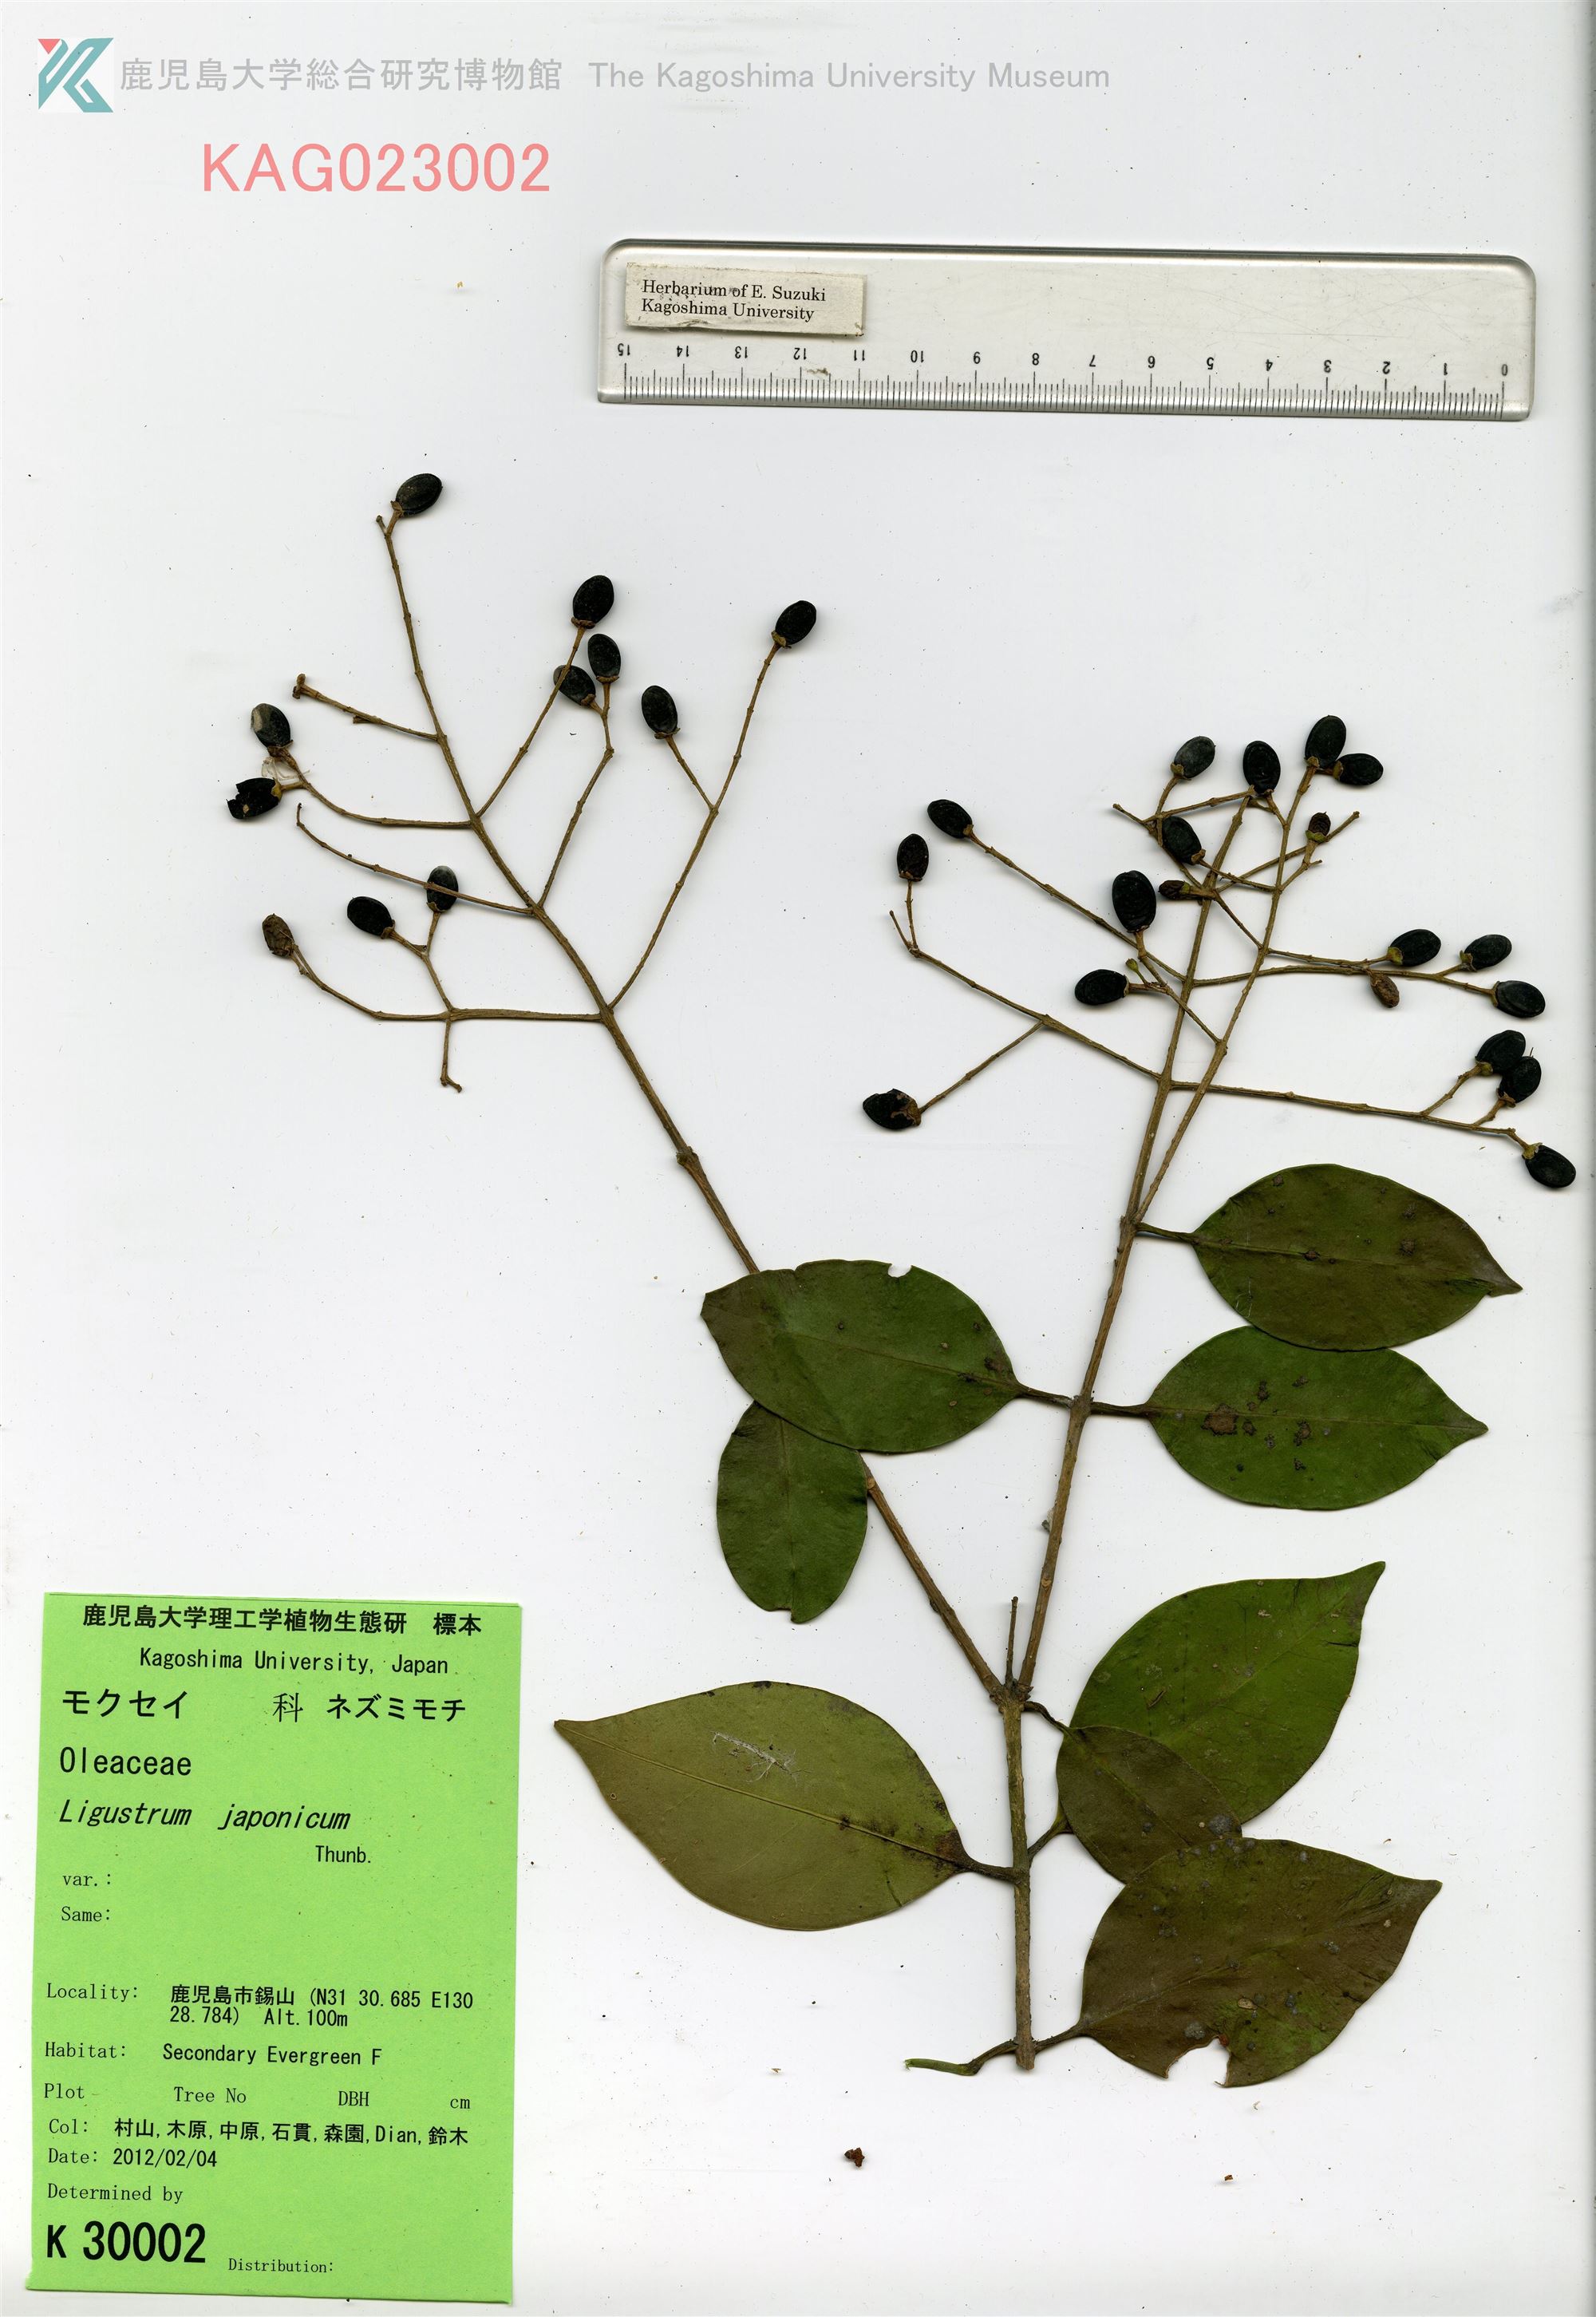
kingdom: Plantae
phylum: Tracheophyta
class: Magnoliopsida
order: Lamiales
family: Oleaceae
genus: Ligustrum
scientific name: Ligustrum japonicum
